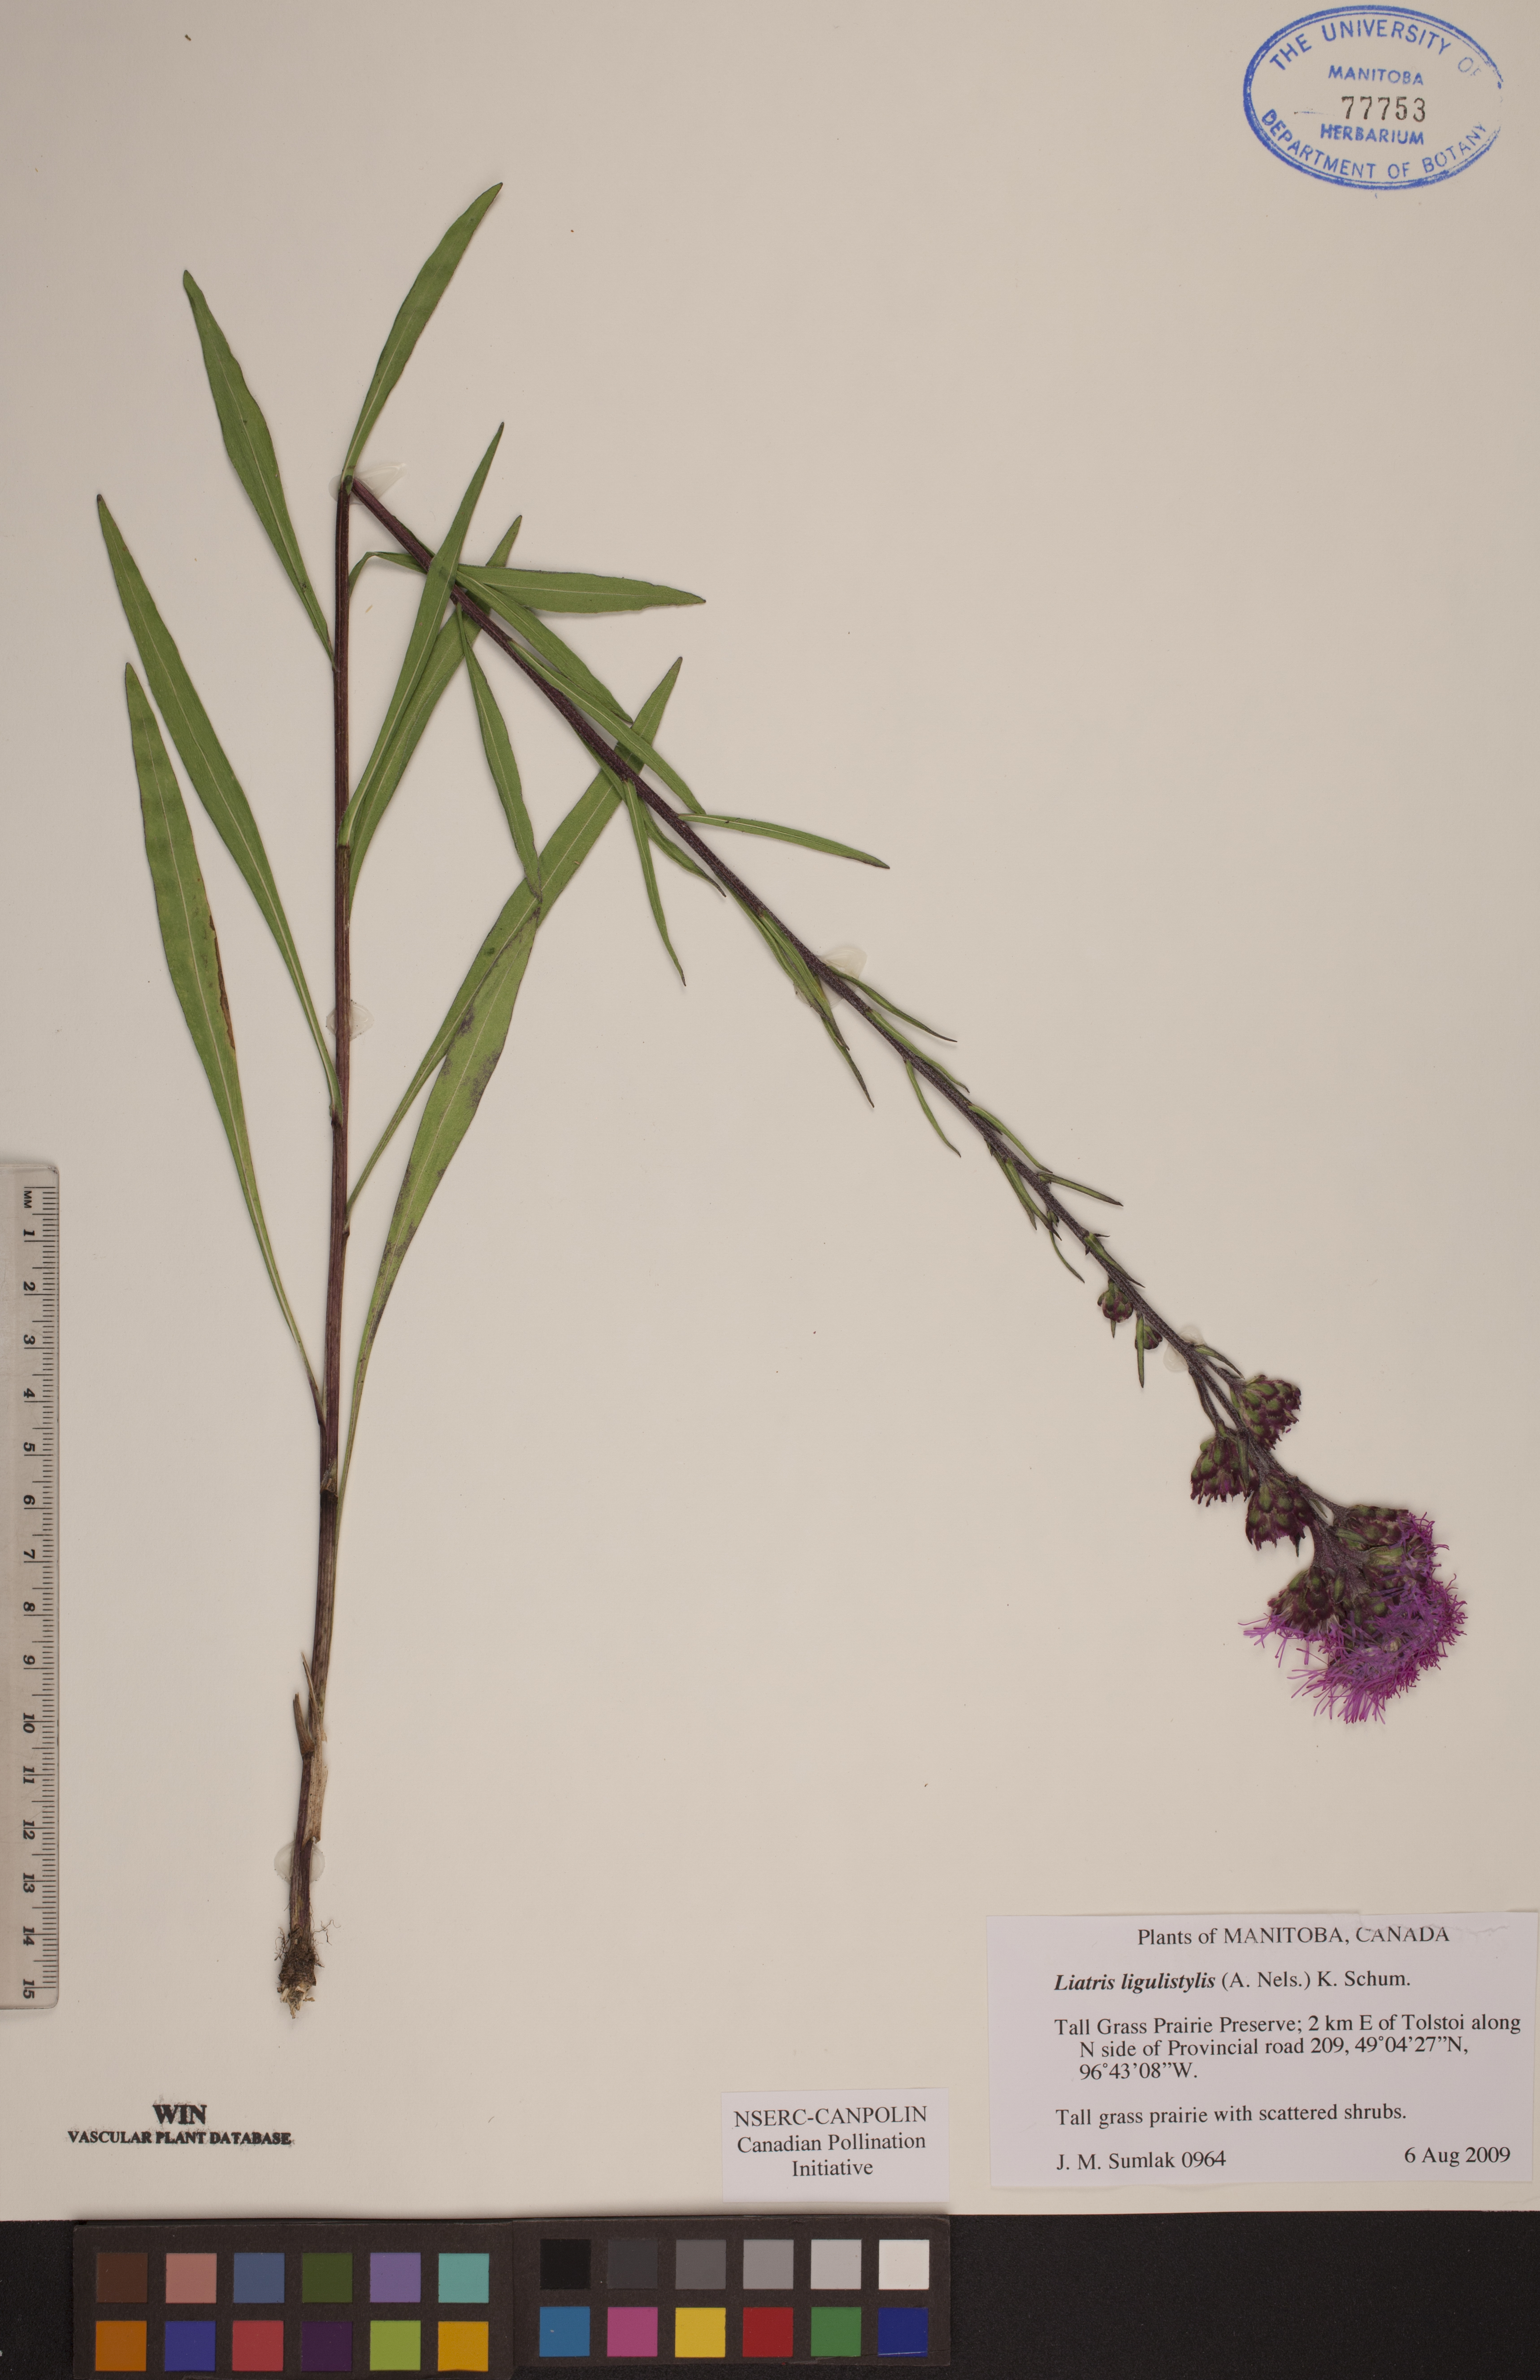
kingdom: Plantae
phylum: Tracheophyta
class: Magnoliopsida
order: Asterales
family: Asteraceae
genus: Liatris
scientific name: Liatris ligulistylis
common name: Northern plains gayfeather
